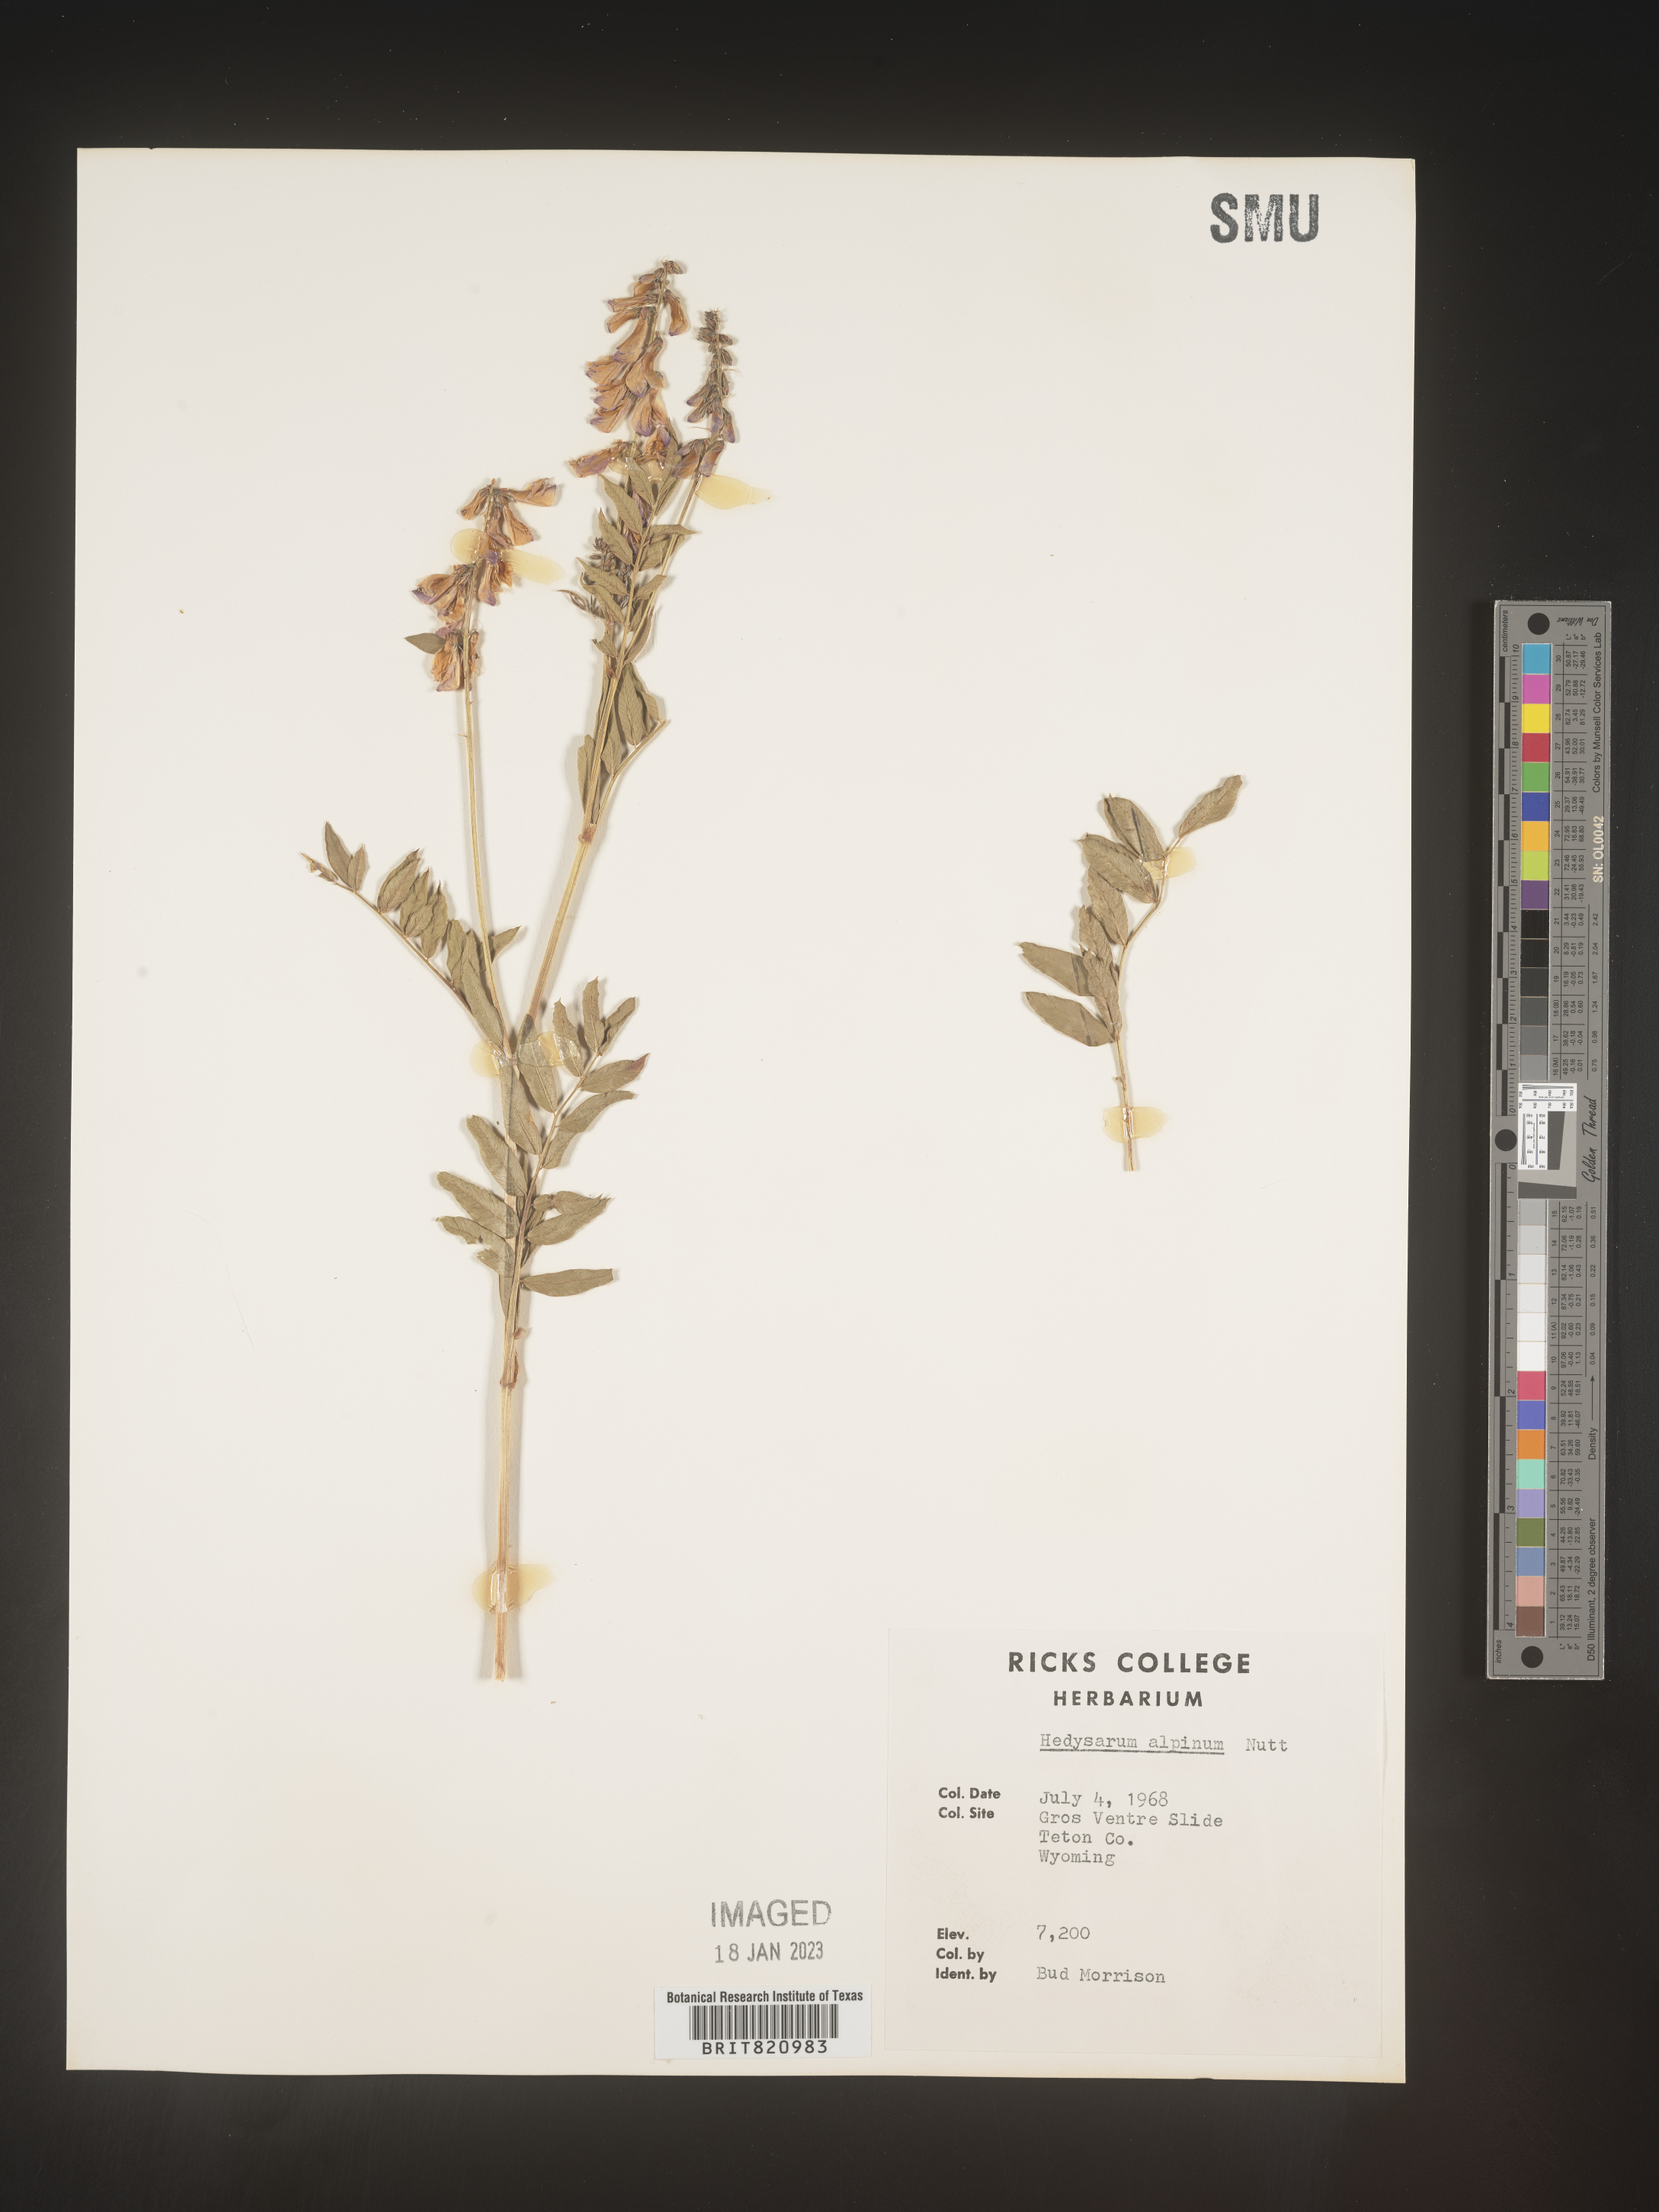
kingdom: Plantae
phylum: Tracheophyta
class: Magnoliopsida
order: Fabales
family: Fabaceae
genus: Hedysarum
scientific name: Hedysarum alpinum
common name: Alpine sweet-vetch
